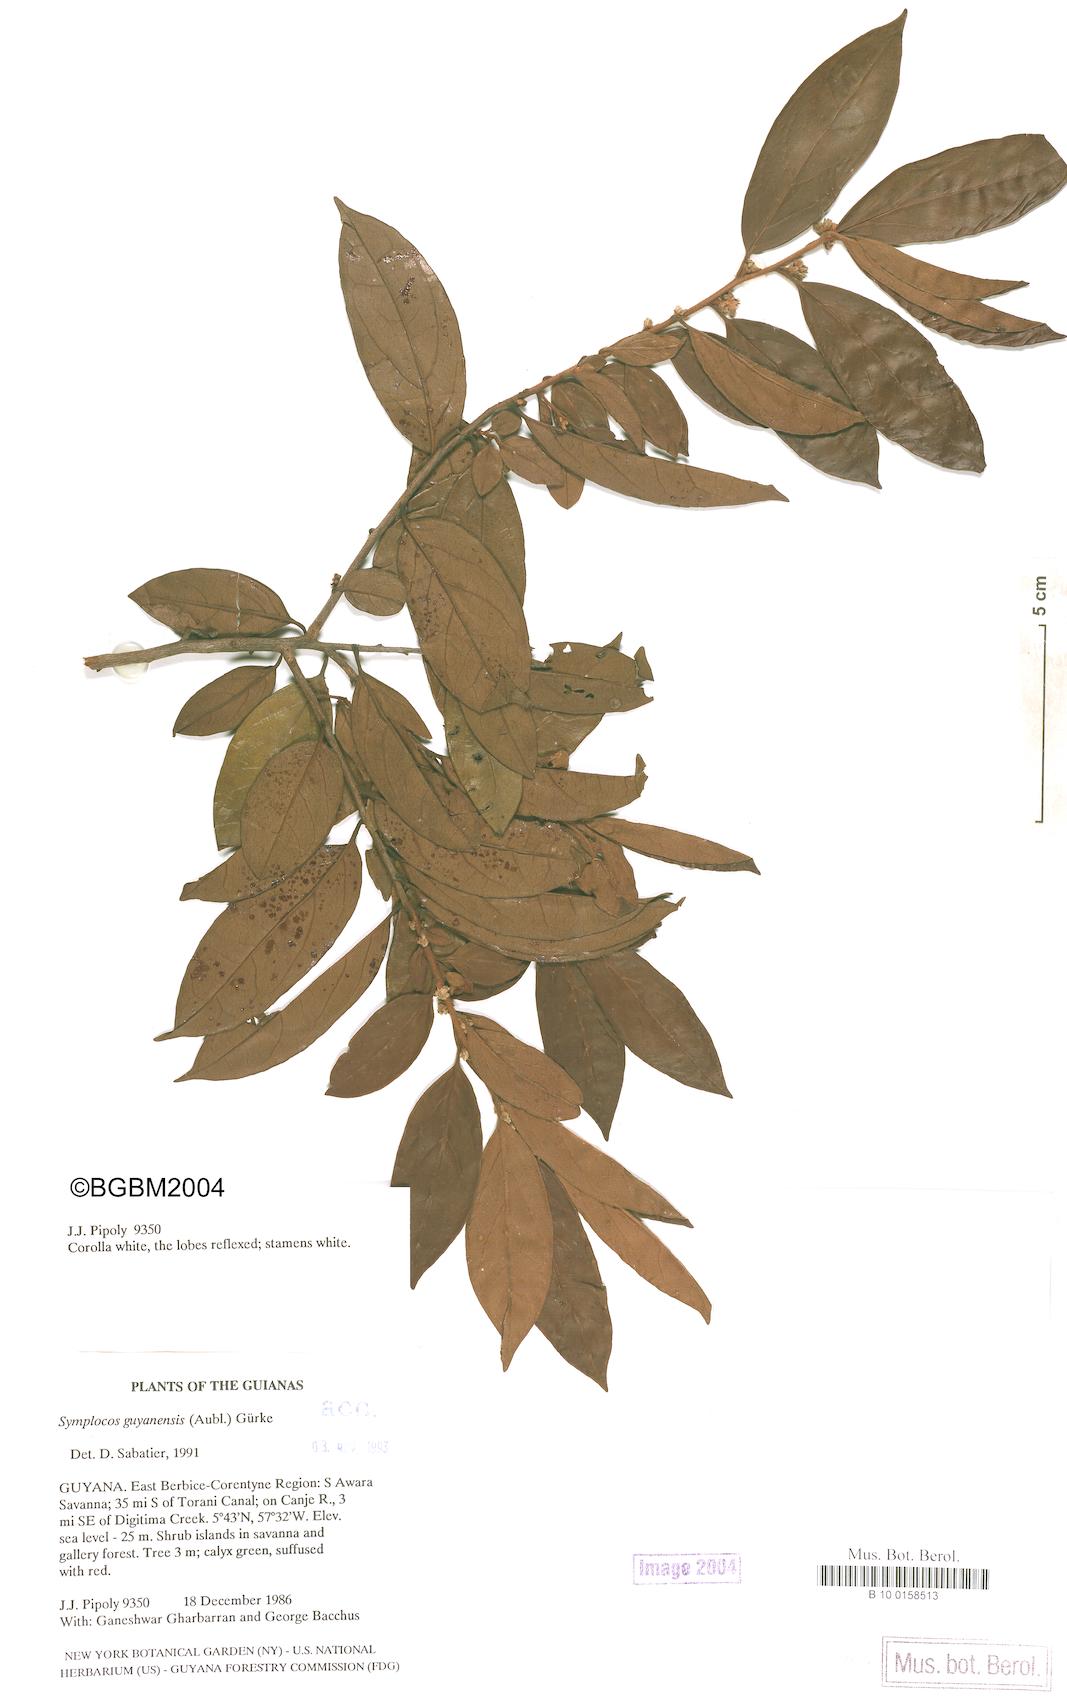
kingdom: Plantae
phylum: Tracheophyta
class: Magnoliopsida
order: Ericales
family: Symplocaceae
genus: Symplocos
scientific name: Symplocos guianensis
